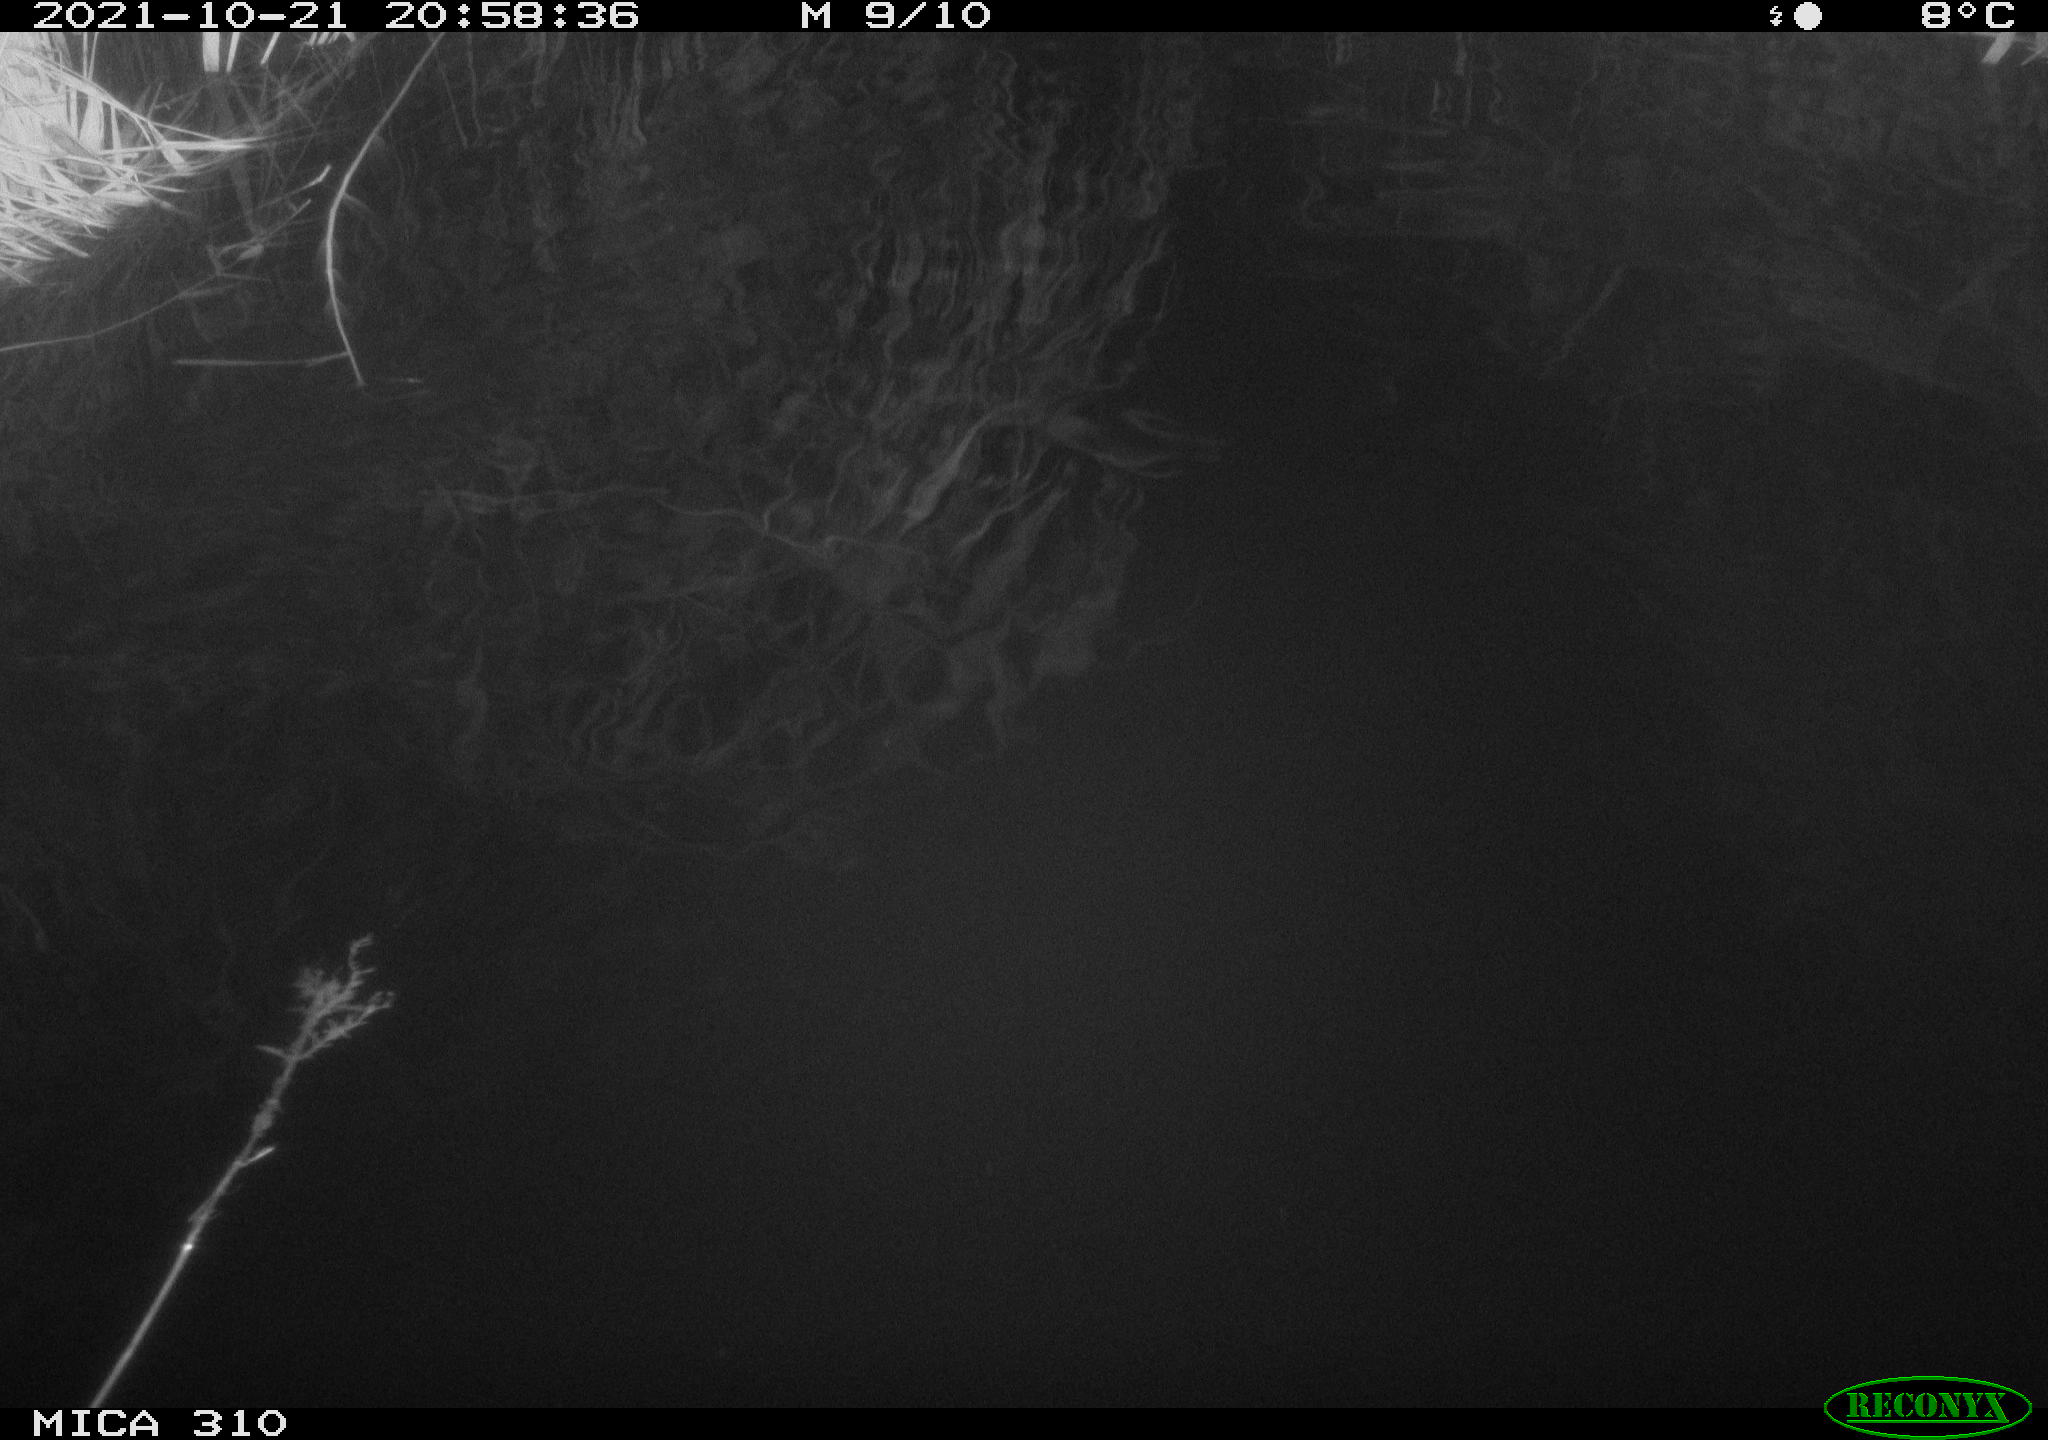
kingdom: Animalia
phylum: Chordata
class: Aves
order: Gruiformes
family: Rallidae
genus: Gallinula
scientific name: Gallinula chloropus
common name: Common moorhen
